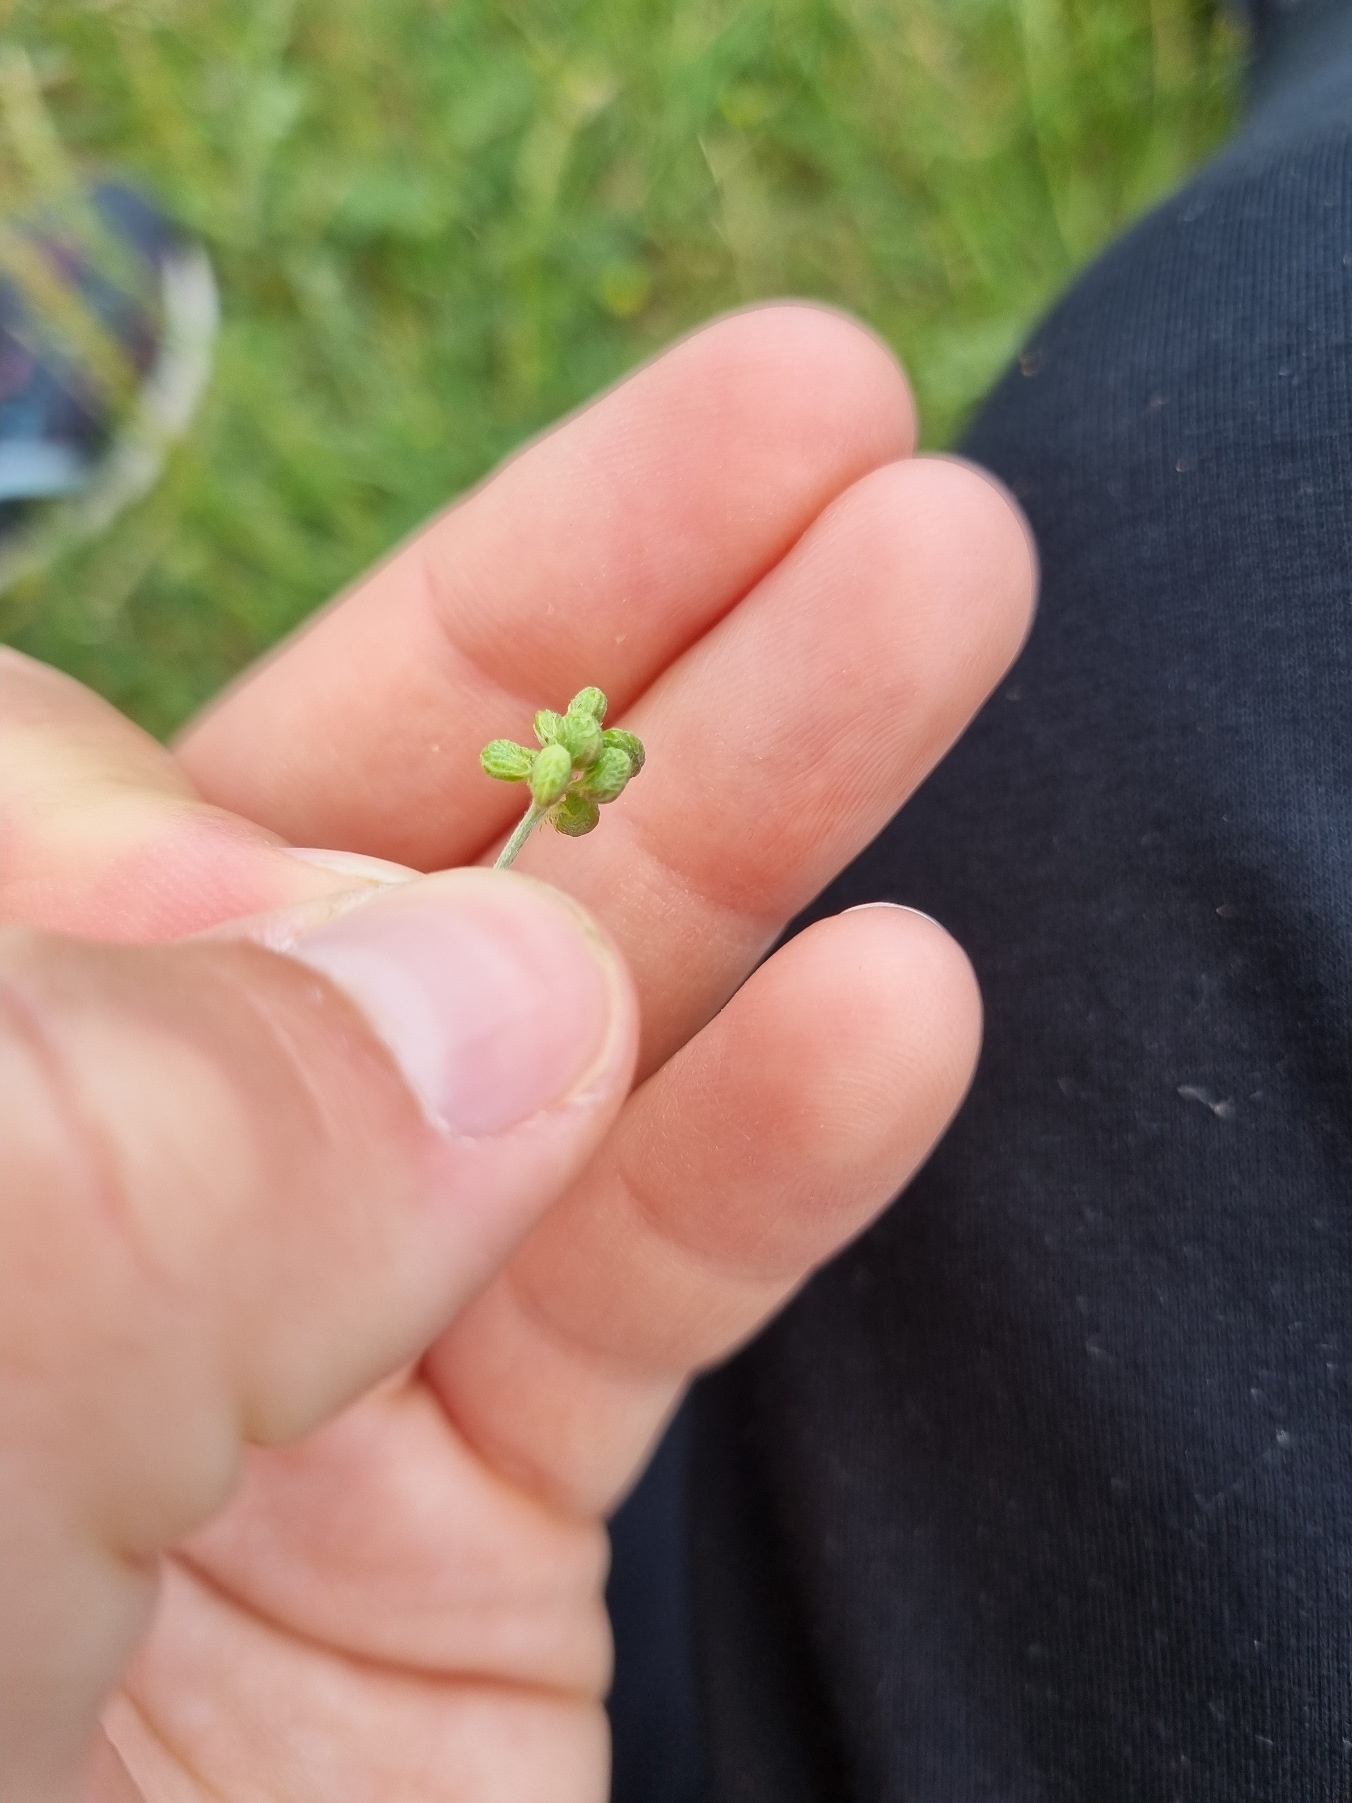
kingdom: Plantae
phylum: Tracheophyta
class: Magnoliopsida
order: Fabales
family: Fabaceae
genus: Medicago
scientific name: Medicago lupulina
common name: Humle-sneglebælg
